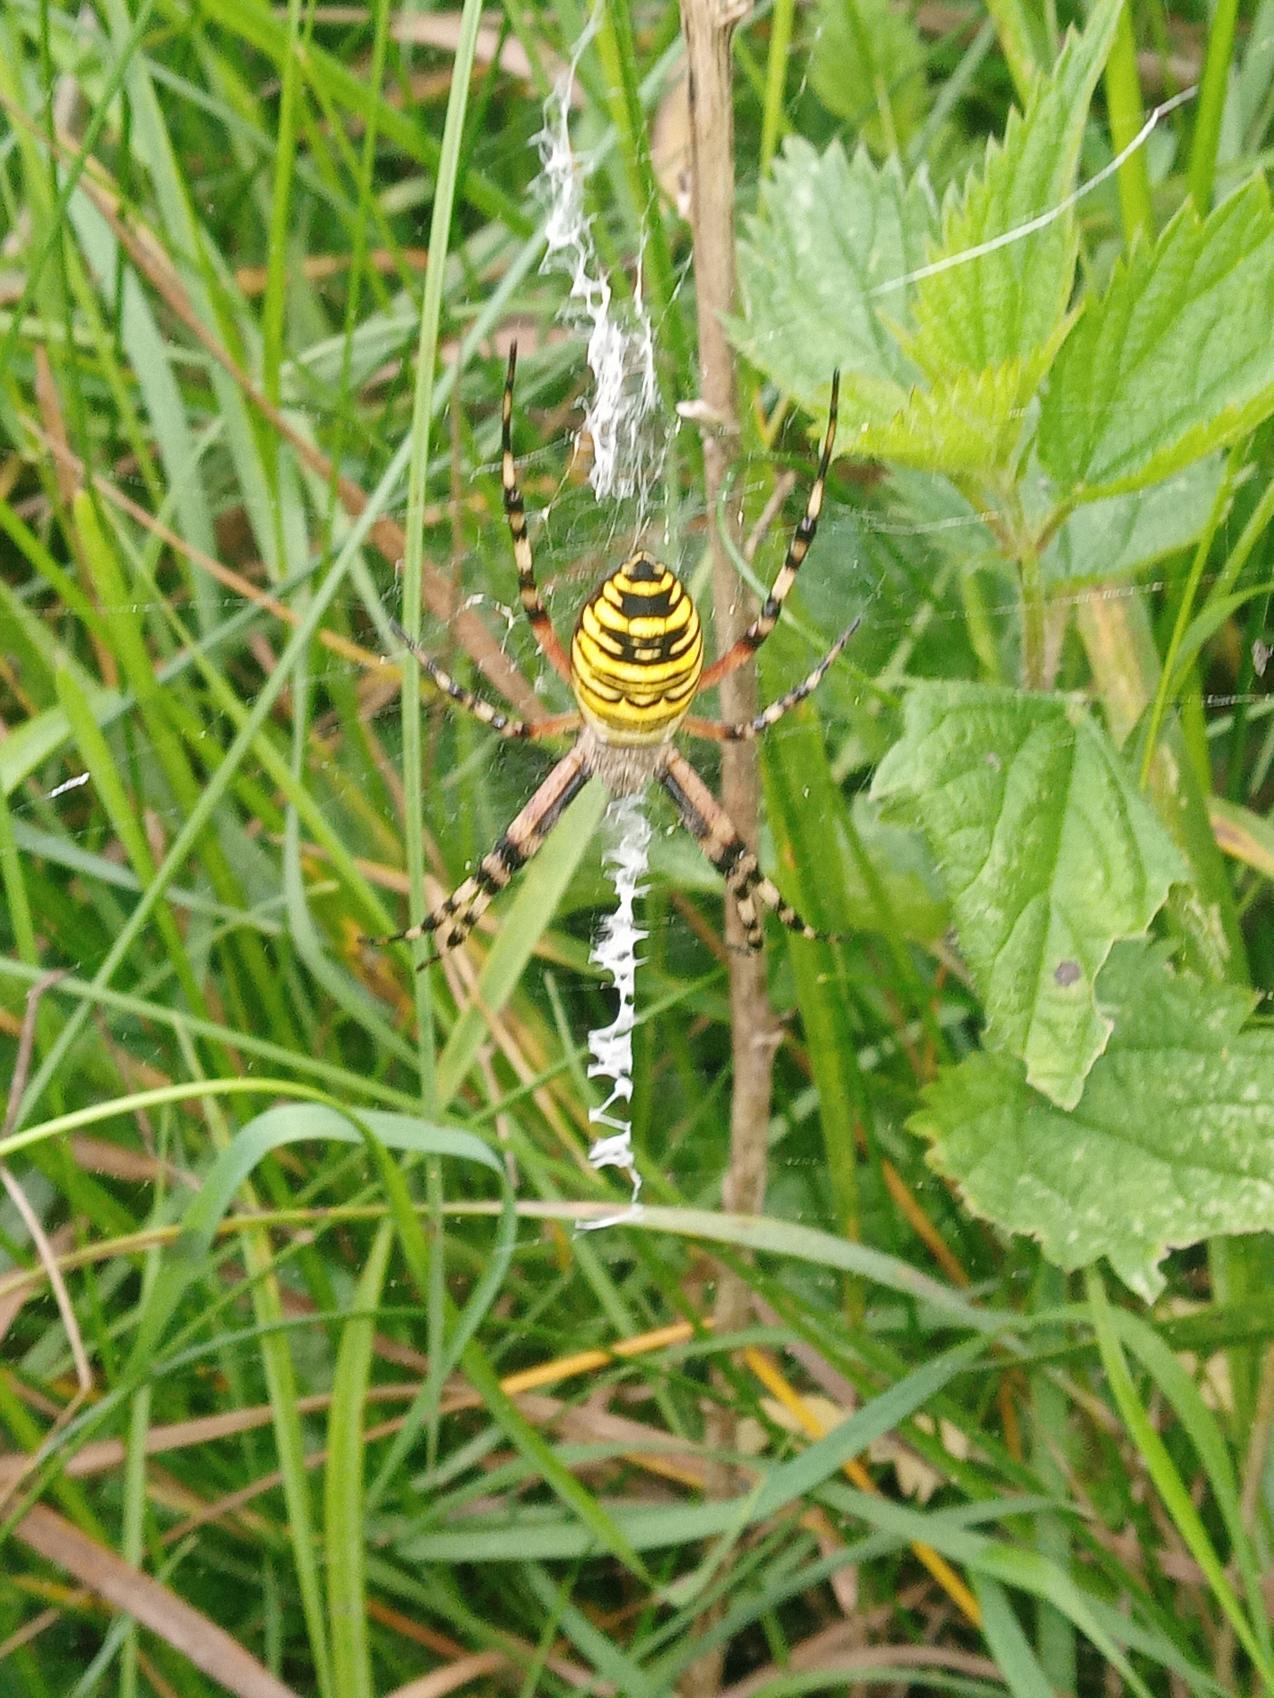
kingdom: Animalia
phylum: Arthropoda
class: Arachnida
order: Araneae
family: Araneidae
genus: Argiope
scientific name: Argiope bruennichi
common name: Hvepseedderkop
